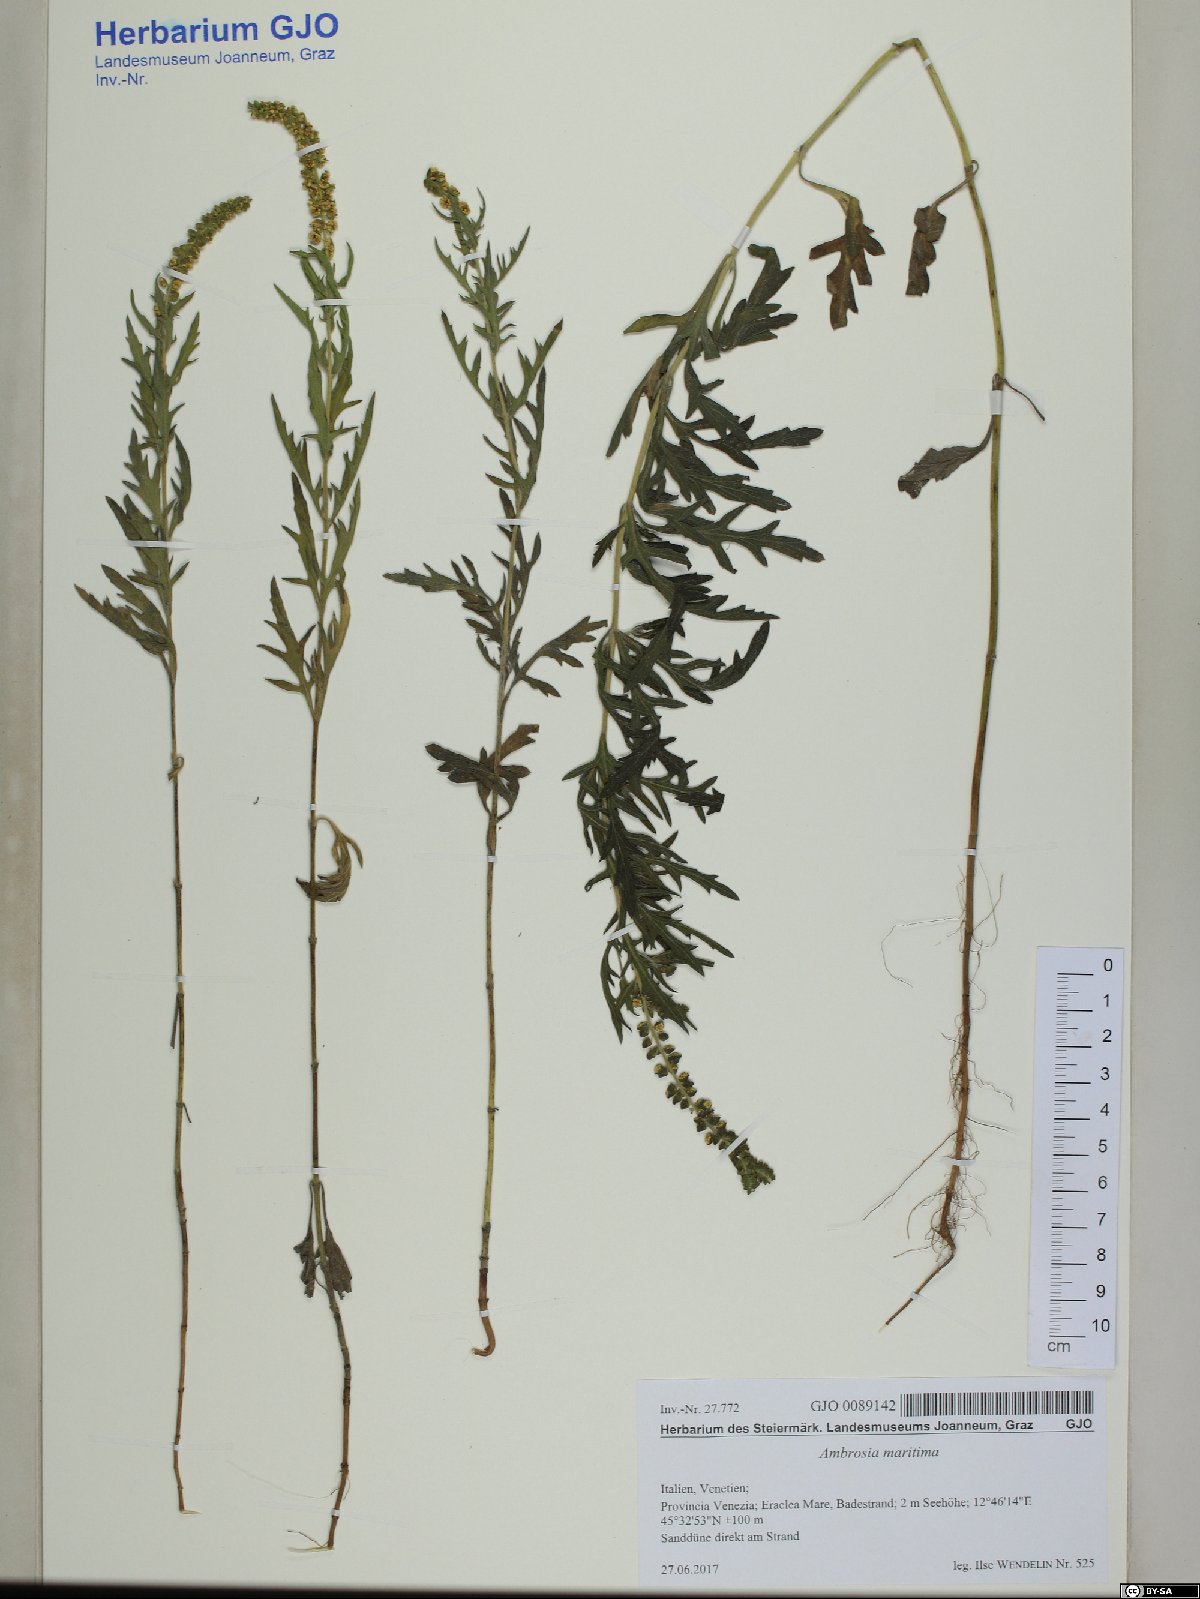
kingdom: Plantae
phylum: Tracheophyta
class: Magnoliopsida
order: Asterales
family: Asteraceae
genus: Ambrosia
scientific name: Ambrosia maritima
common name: Sea ambrosia
